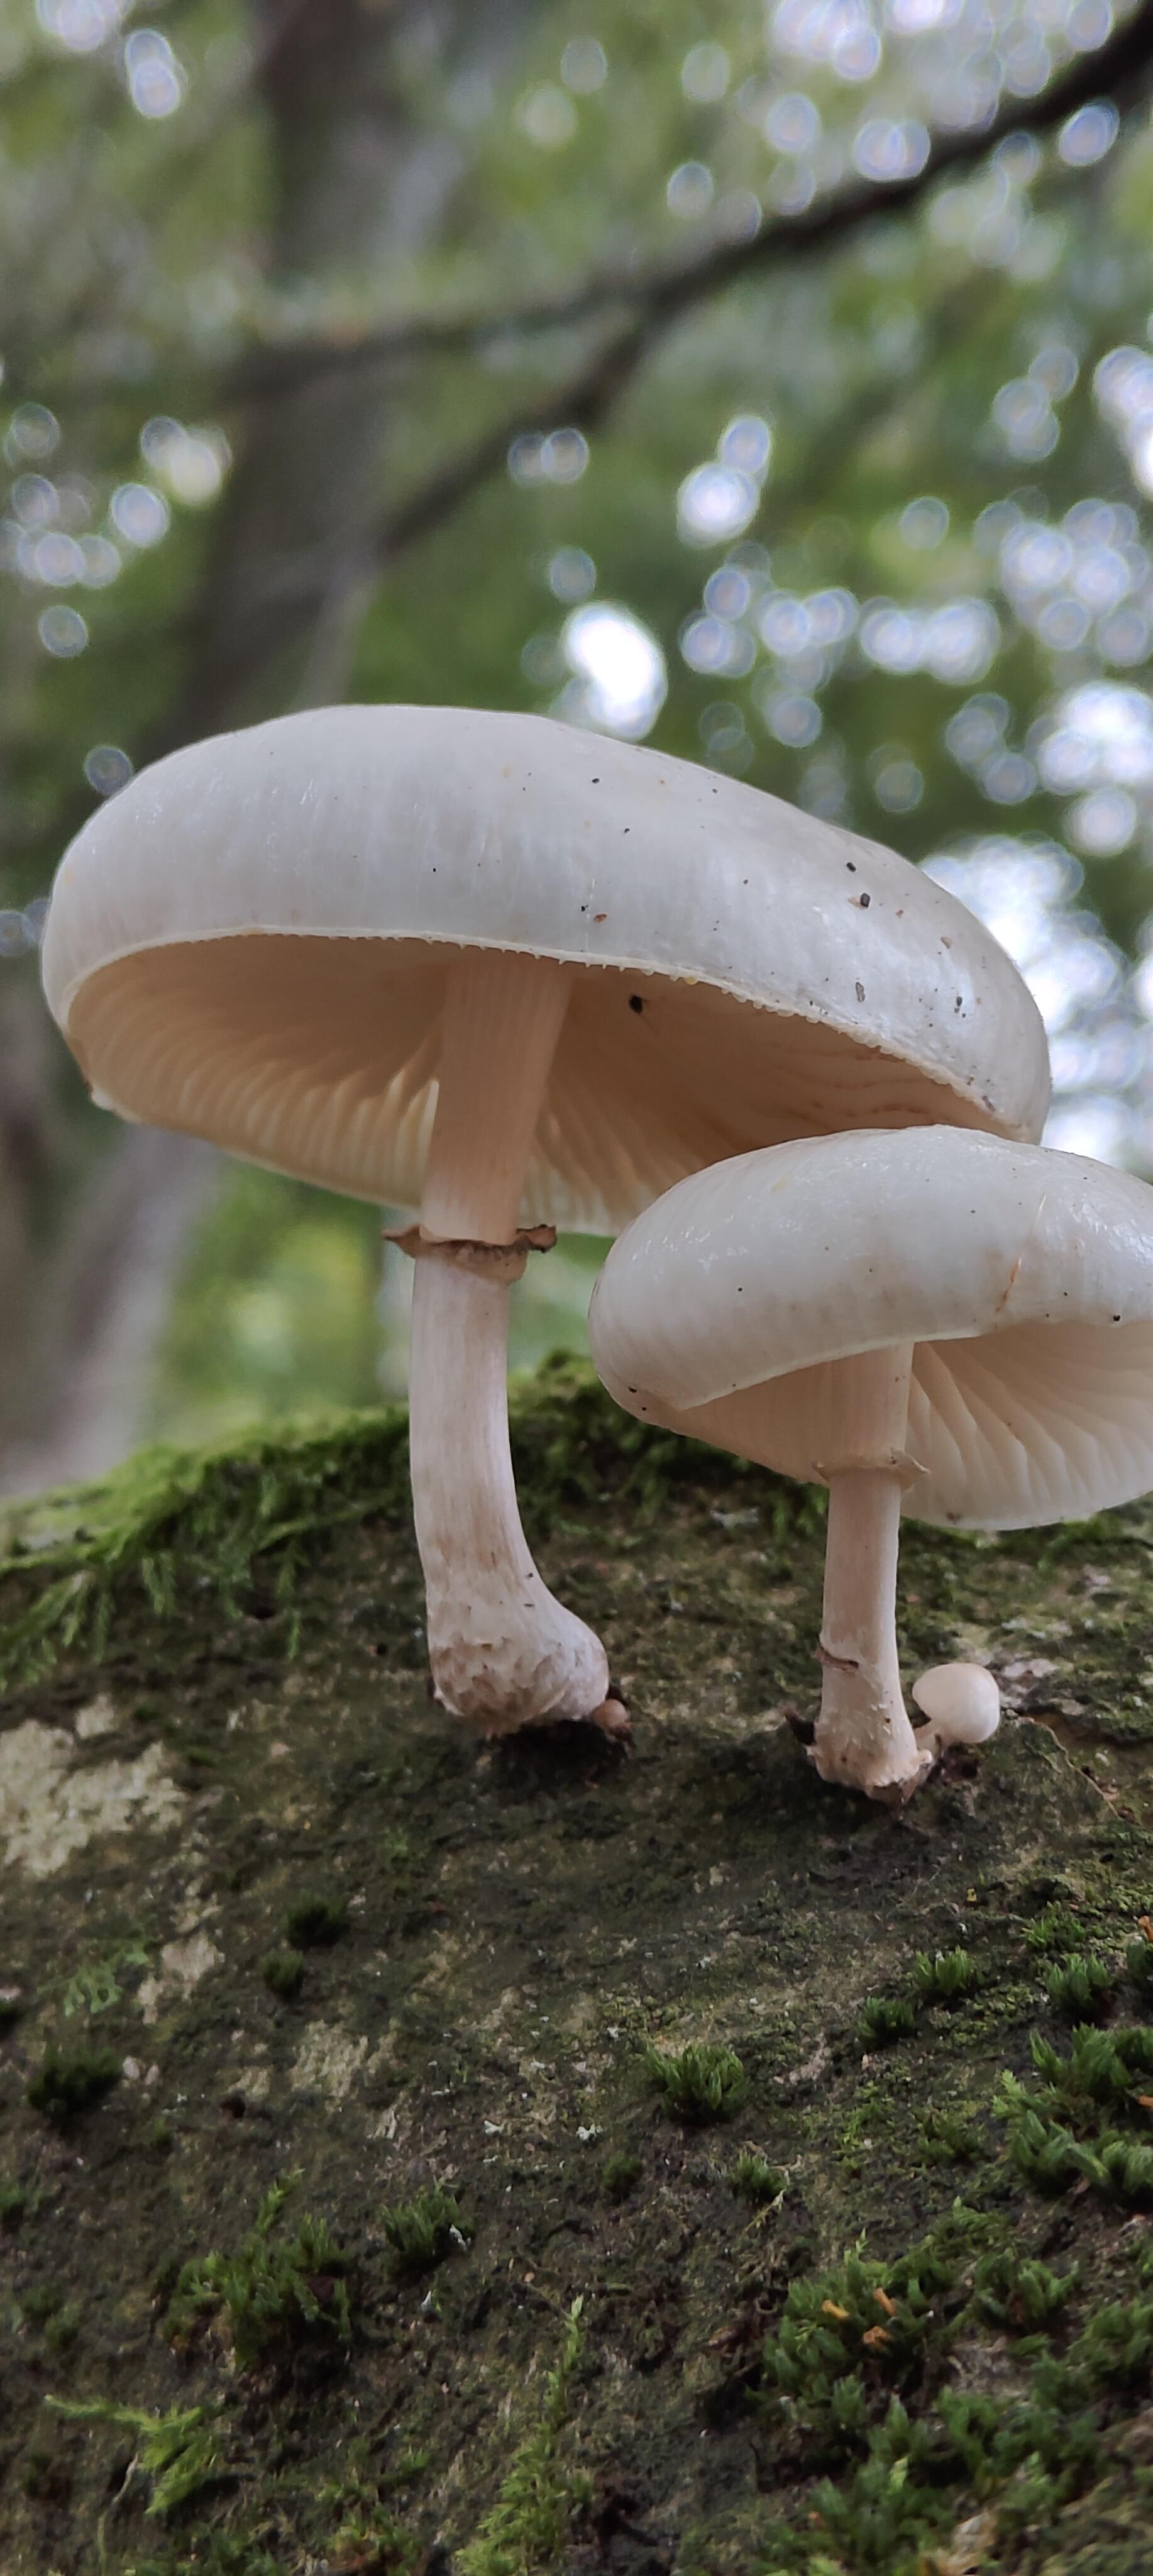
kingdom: Fungi
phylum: Basidiomycota
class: Agaricomycetes
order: Agaricales
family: Physalacriaceae
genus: Mucidula
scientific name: Mucidula mucida
